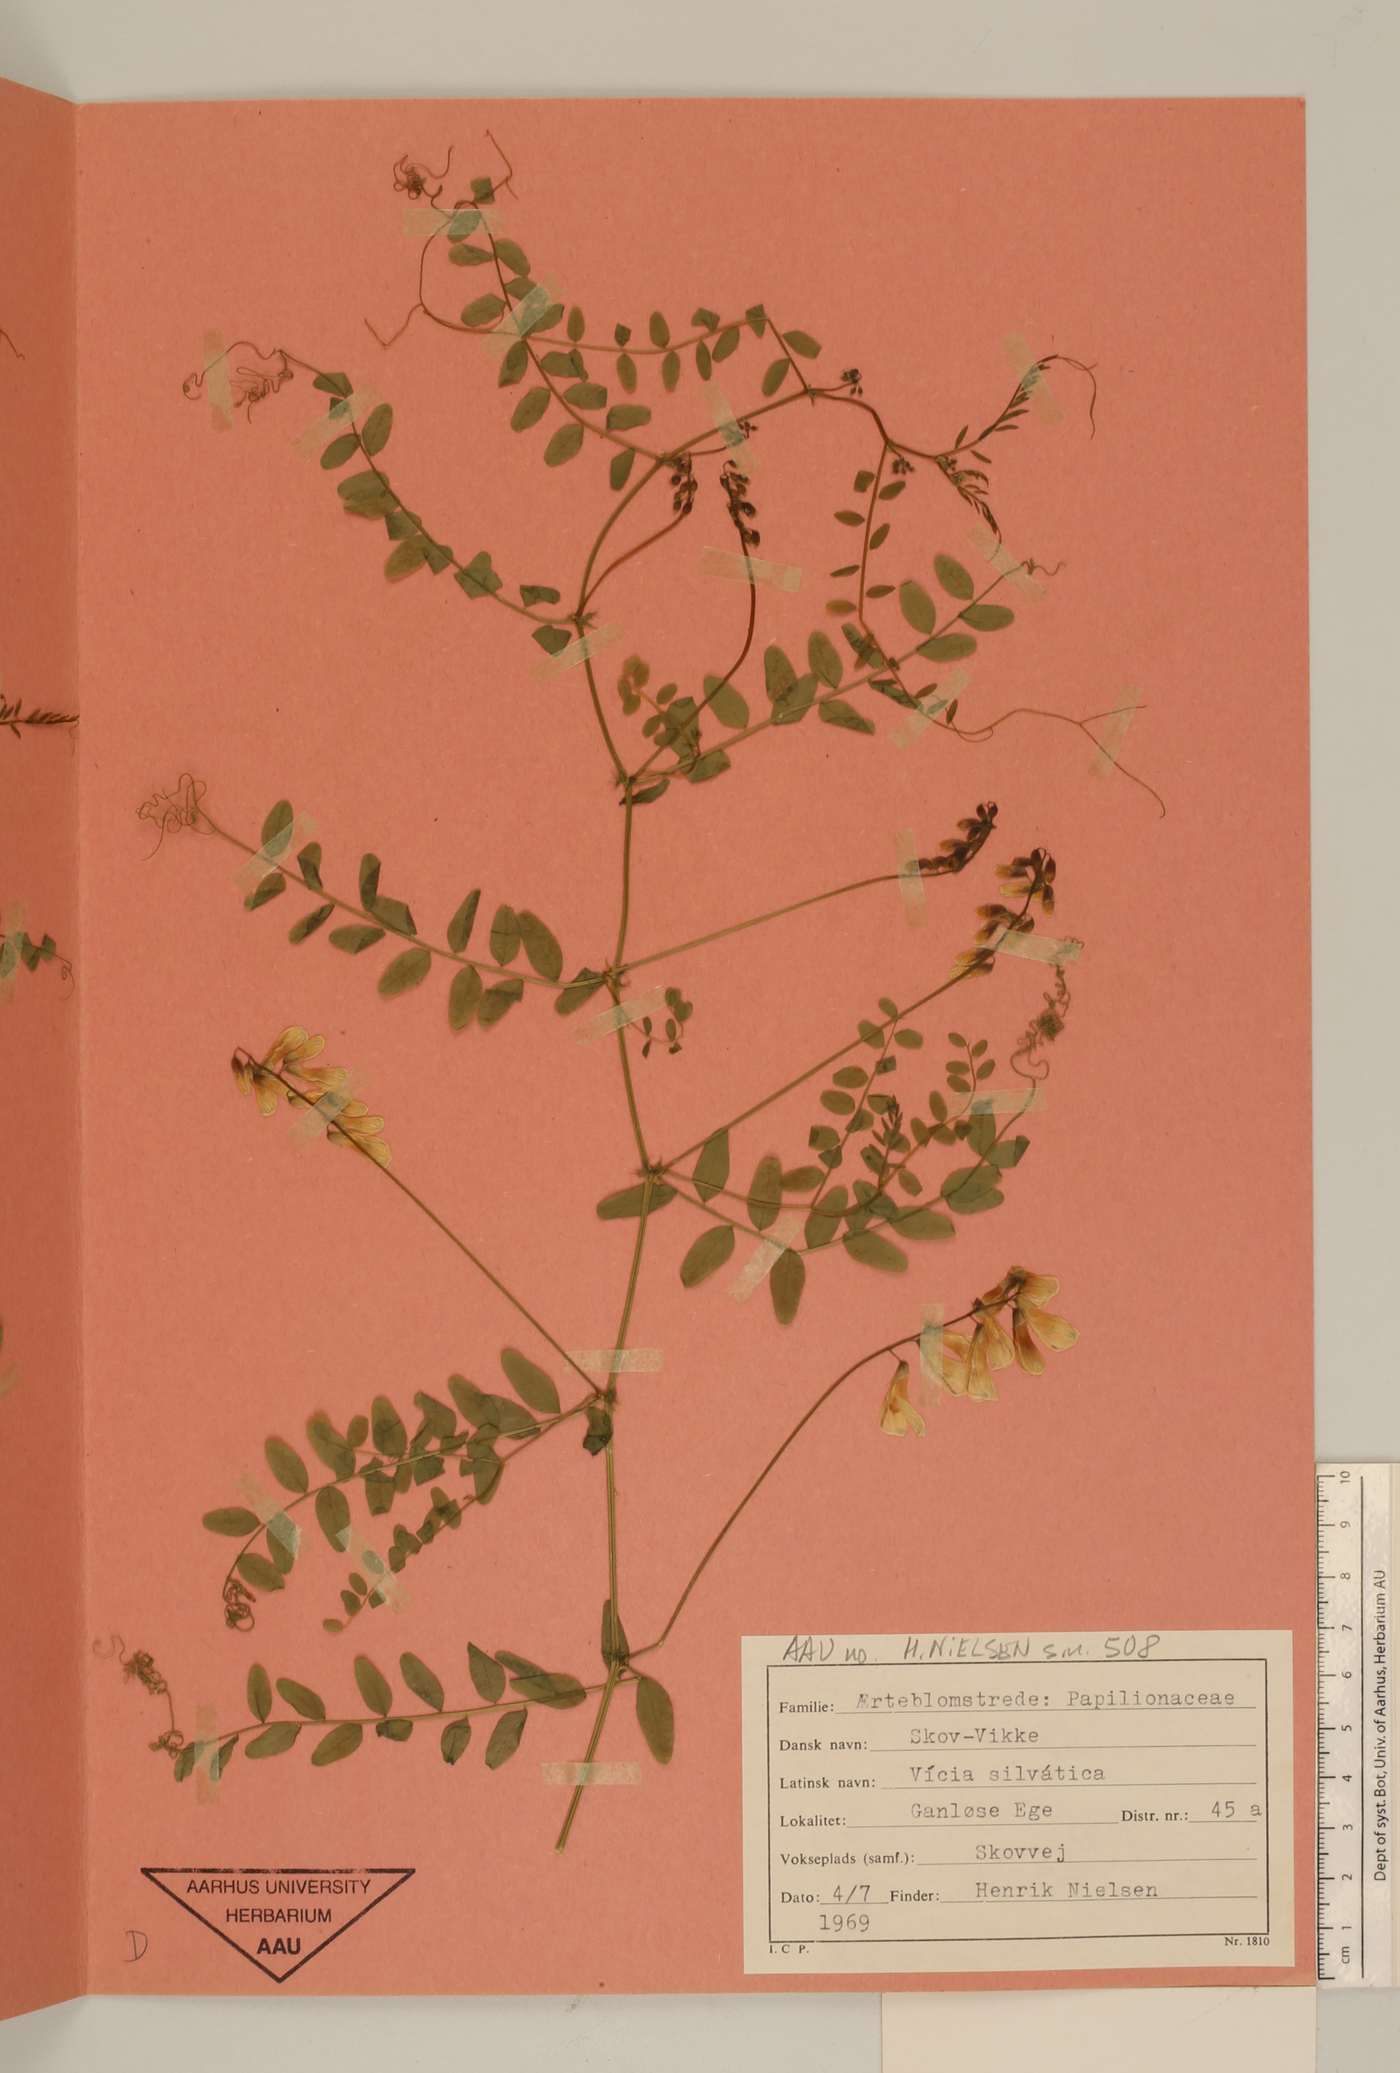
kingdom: Plantae
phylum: Tracheophyta
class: Magnoliopsida
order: Fabales
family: Fabaceae
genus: Vicia
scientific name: Vicia sylvatica
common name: Wood vetch
